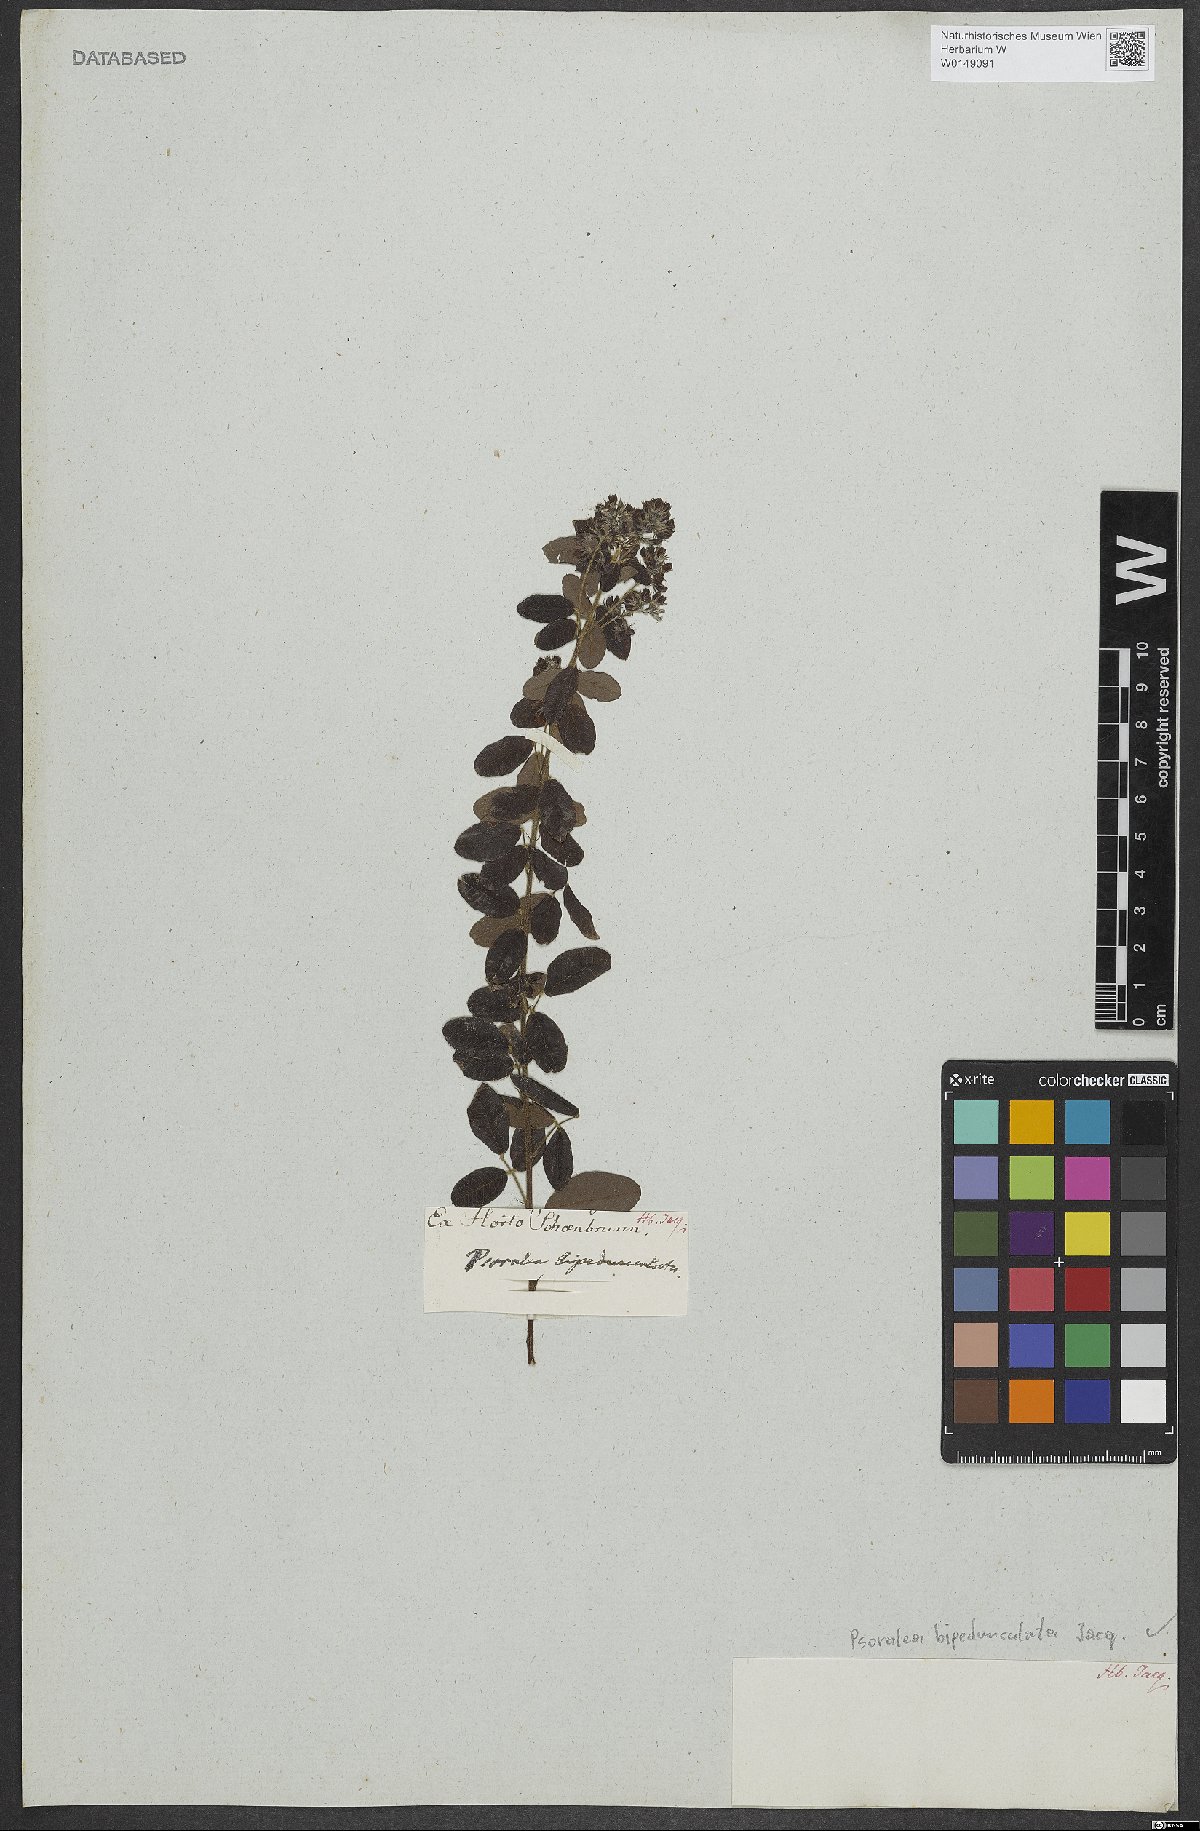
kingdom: Plantae
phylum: Tracheophyta
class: Magnoliopsida
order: Fabales
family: Fabaceae
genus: Psoralea
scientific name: Psoralea bipedunculata
